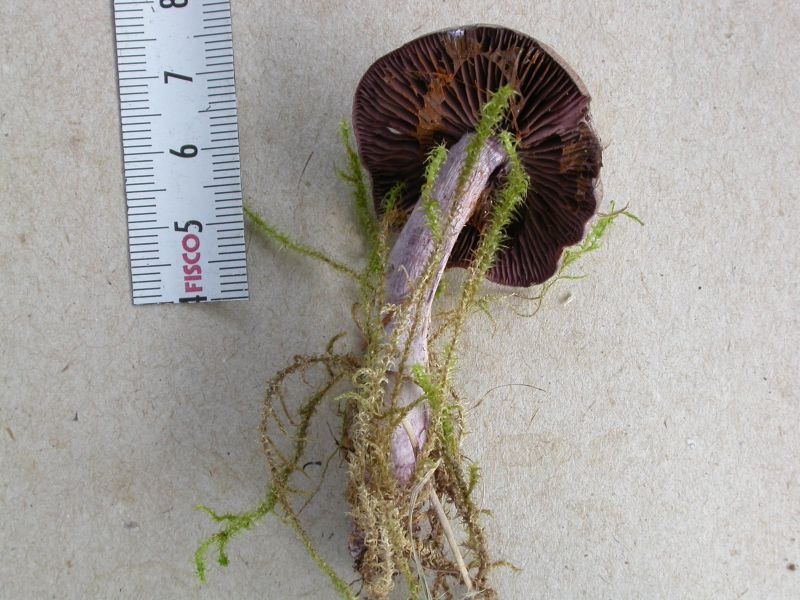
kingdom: Fungi
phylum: Basidiomycota
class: Agaricomycetes
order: Agaricales
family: Cortinariaceae
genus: Thaxterogaster
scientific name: Thaxterogaster subporphyropus
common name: ametyst-slørhat
